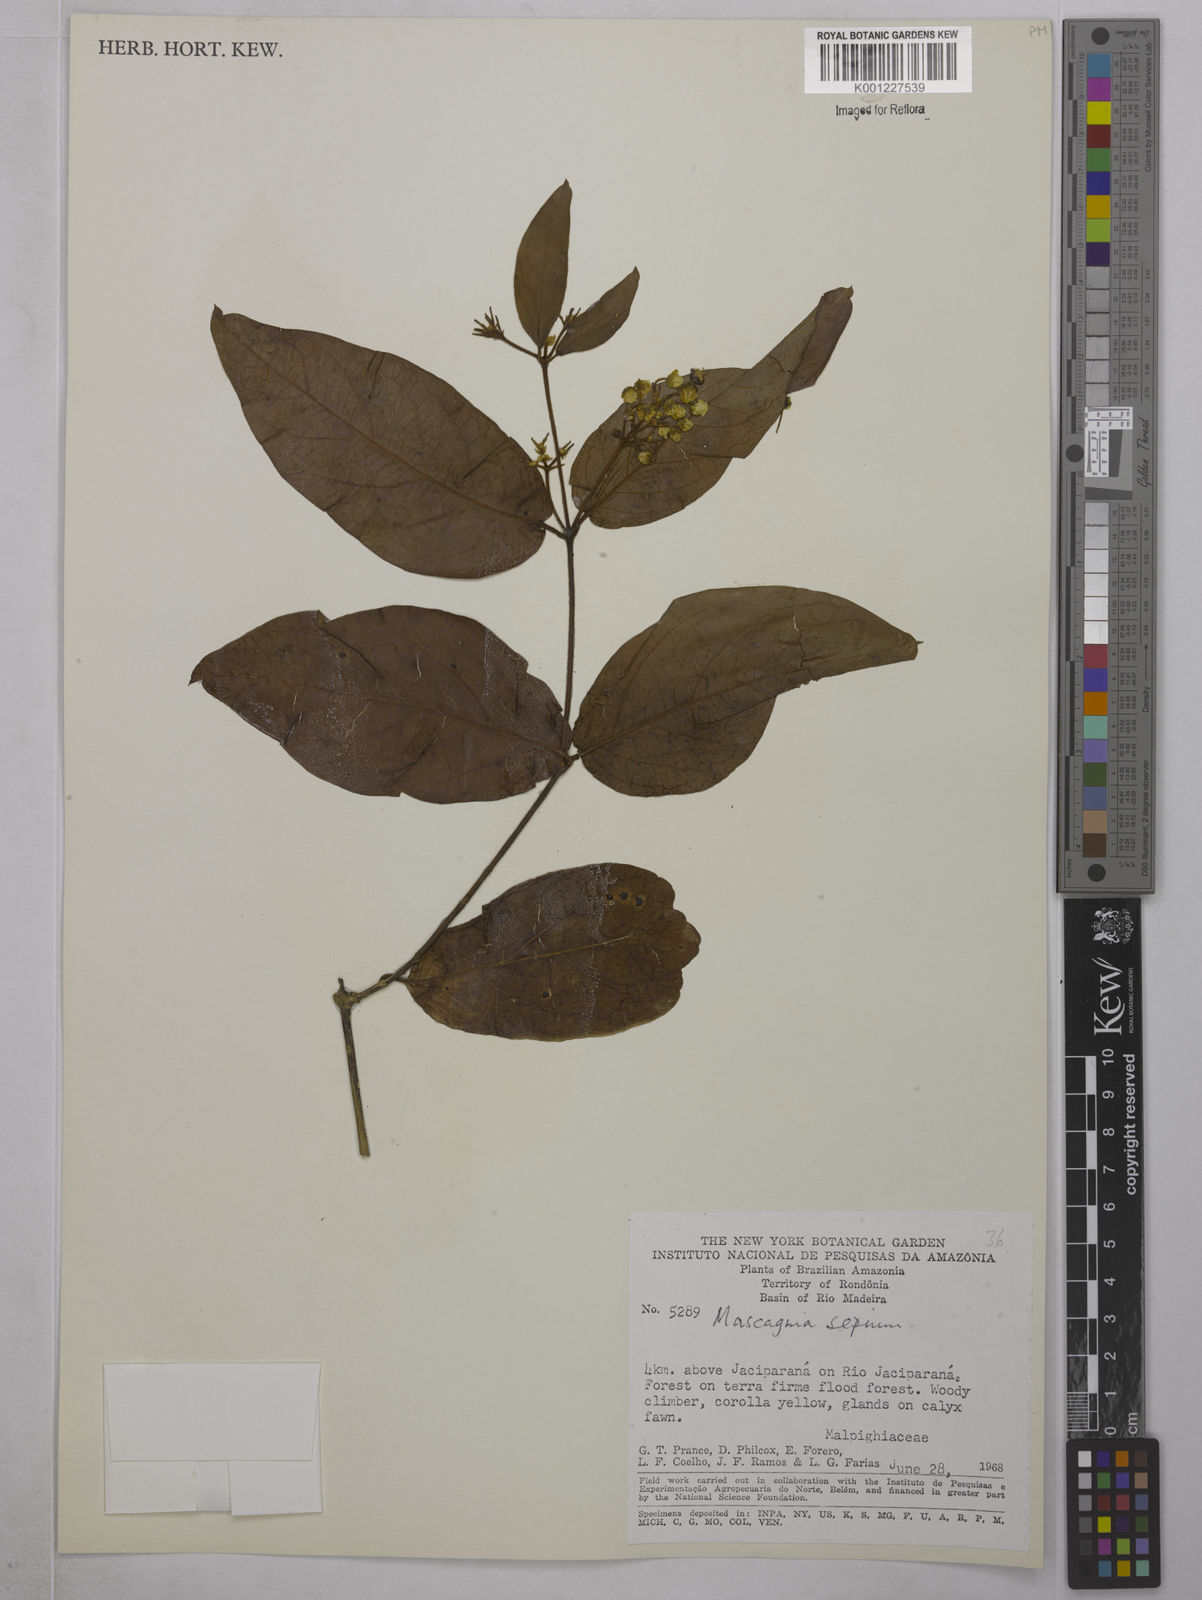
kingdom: Plantae
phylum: Tracheophyta
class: Magnoliopsida
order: Malpighiales
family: Malpighiaceae
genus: Mascagnia
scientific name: Mascagnia sepium
